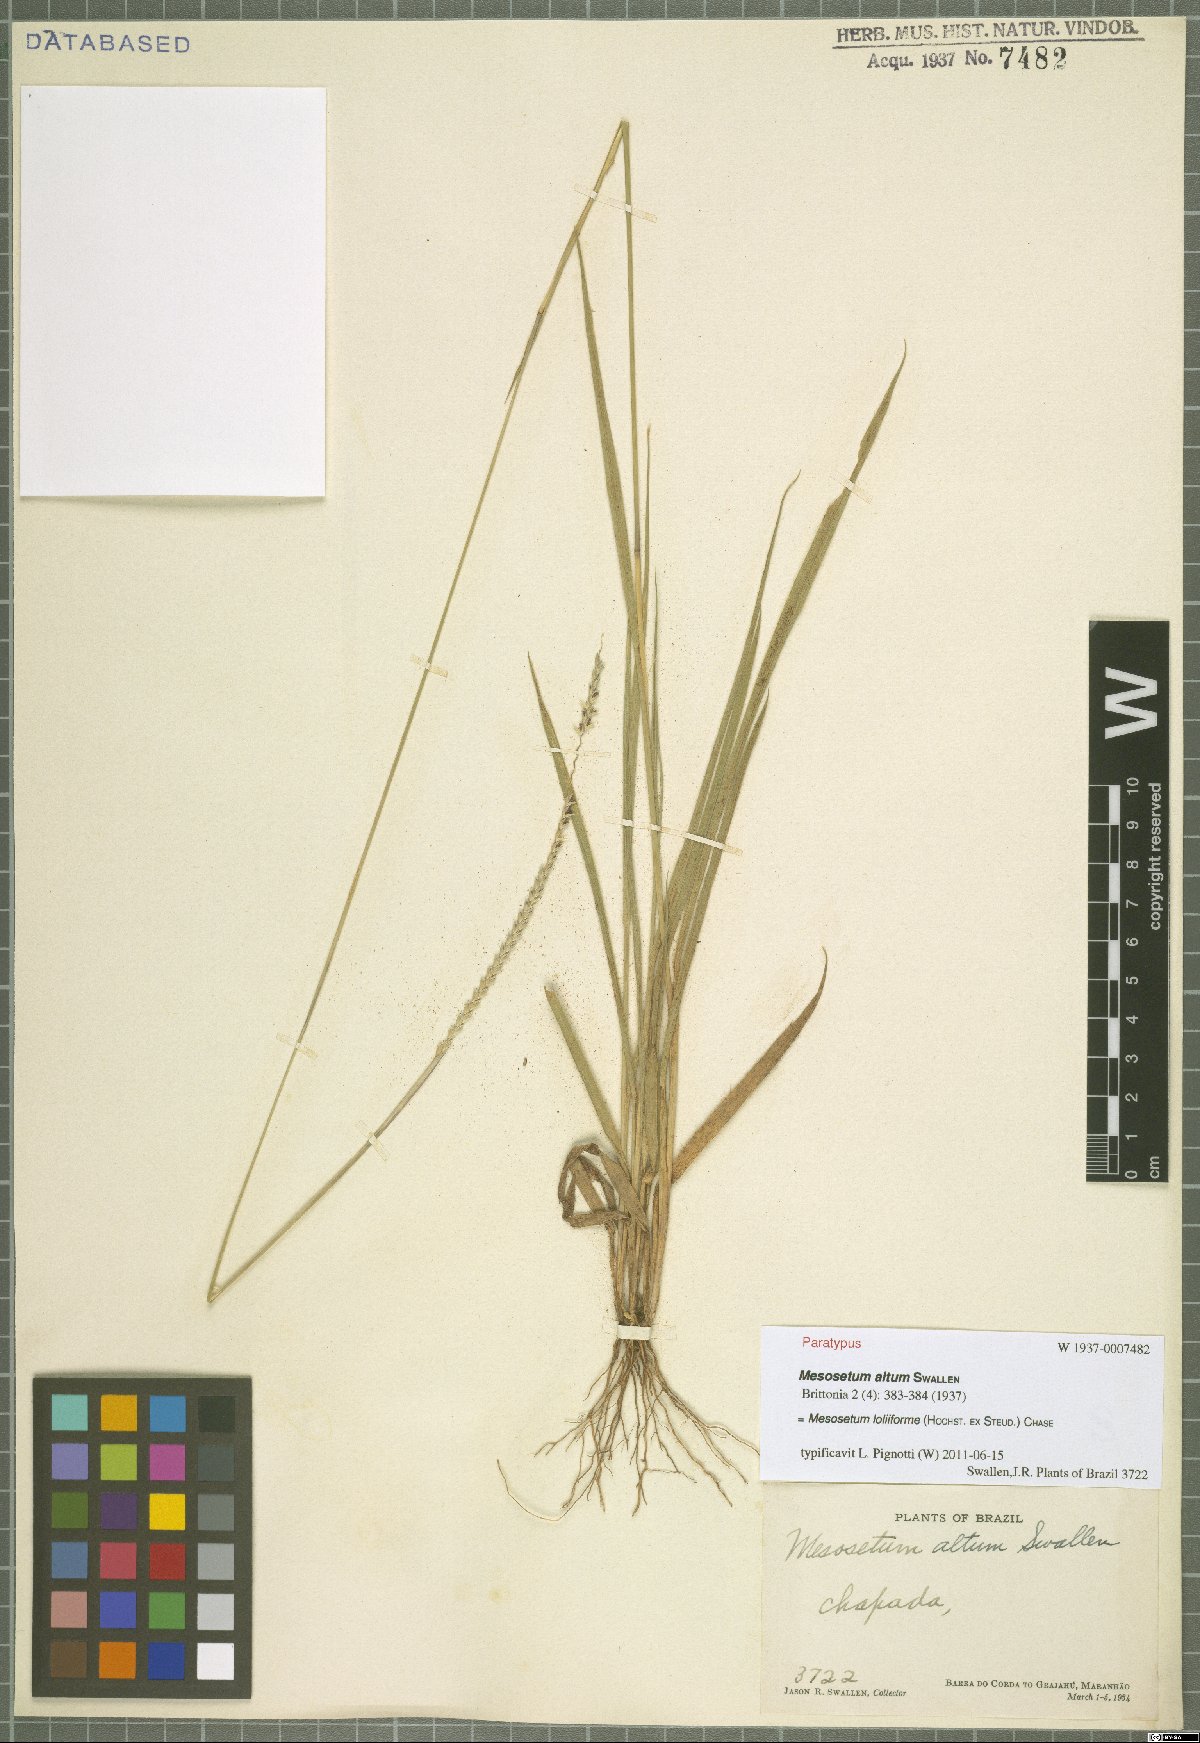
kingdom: Plantae
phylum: Tracheophyta
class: Liliopsida
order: Poales
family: Poaceae
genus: Mesosetum
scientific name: Mesosetum loliiforme
